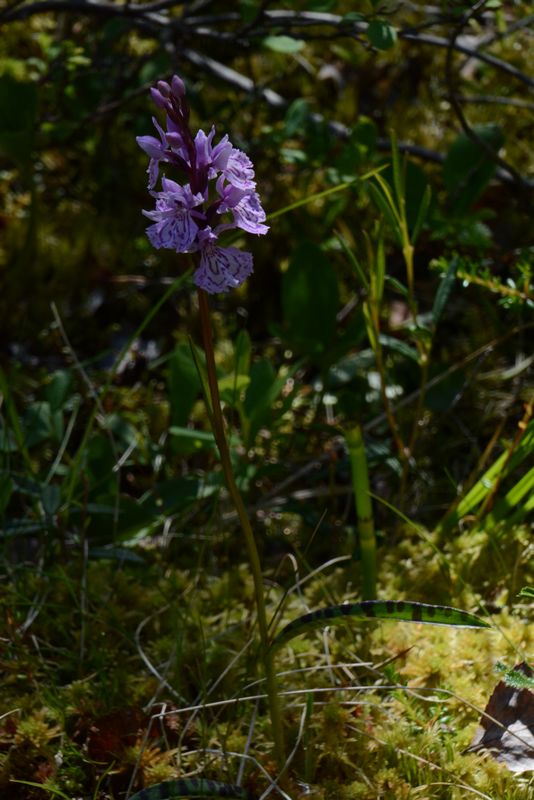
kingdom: Plantae
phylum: Tracheophyta
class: Liliopsida
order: Asparagales
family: Orchidaceae
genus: Dactylorhiza
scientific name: Dactylorhiza maculata
